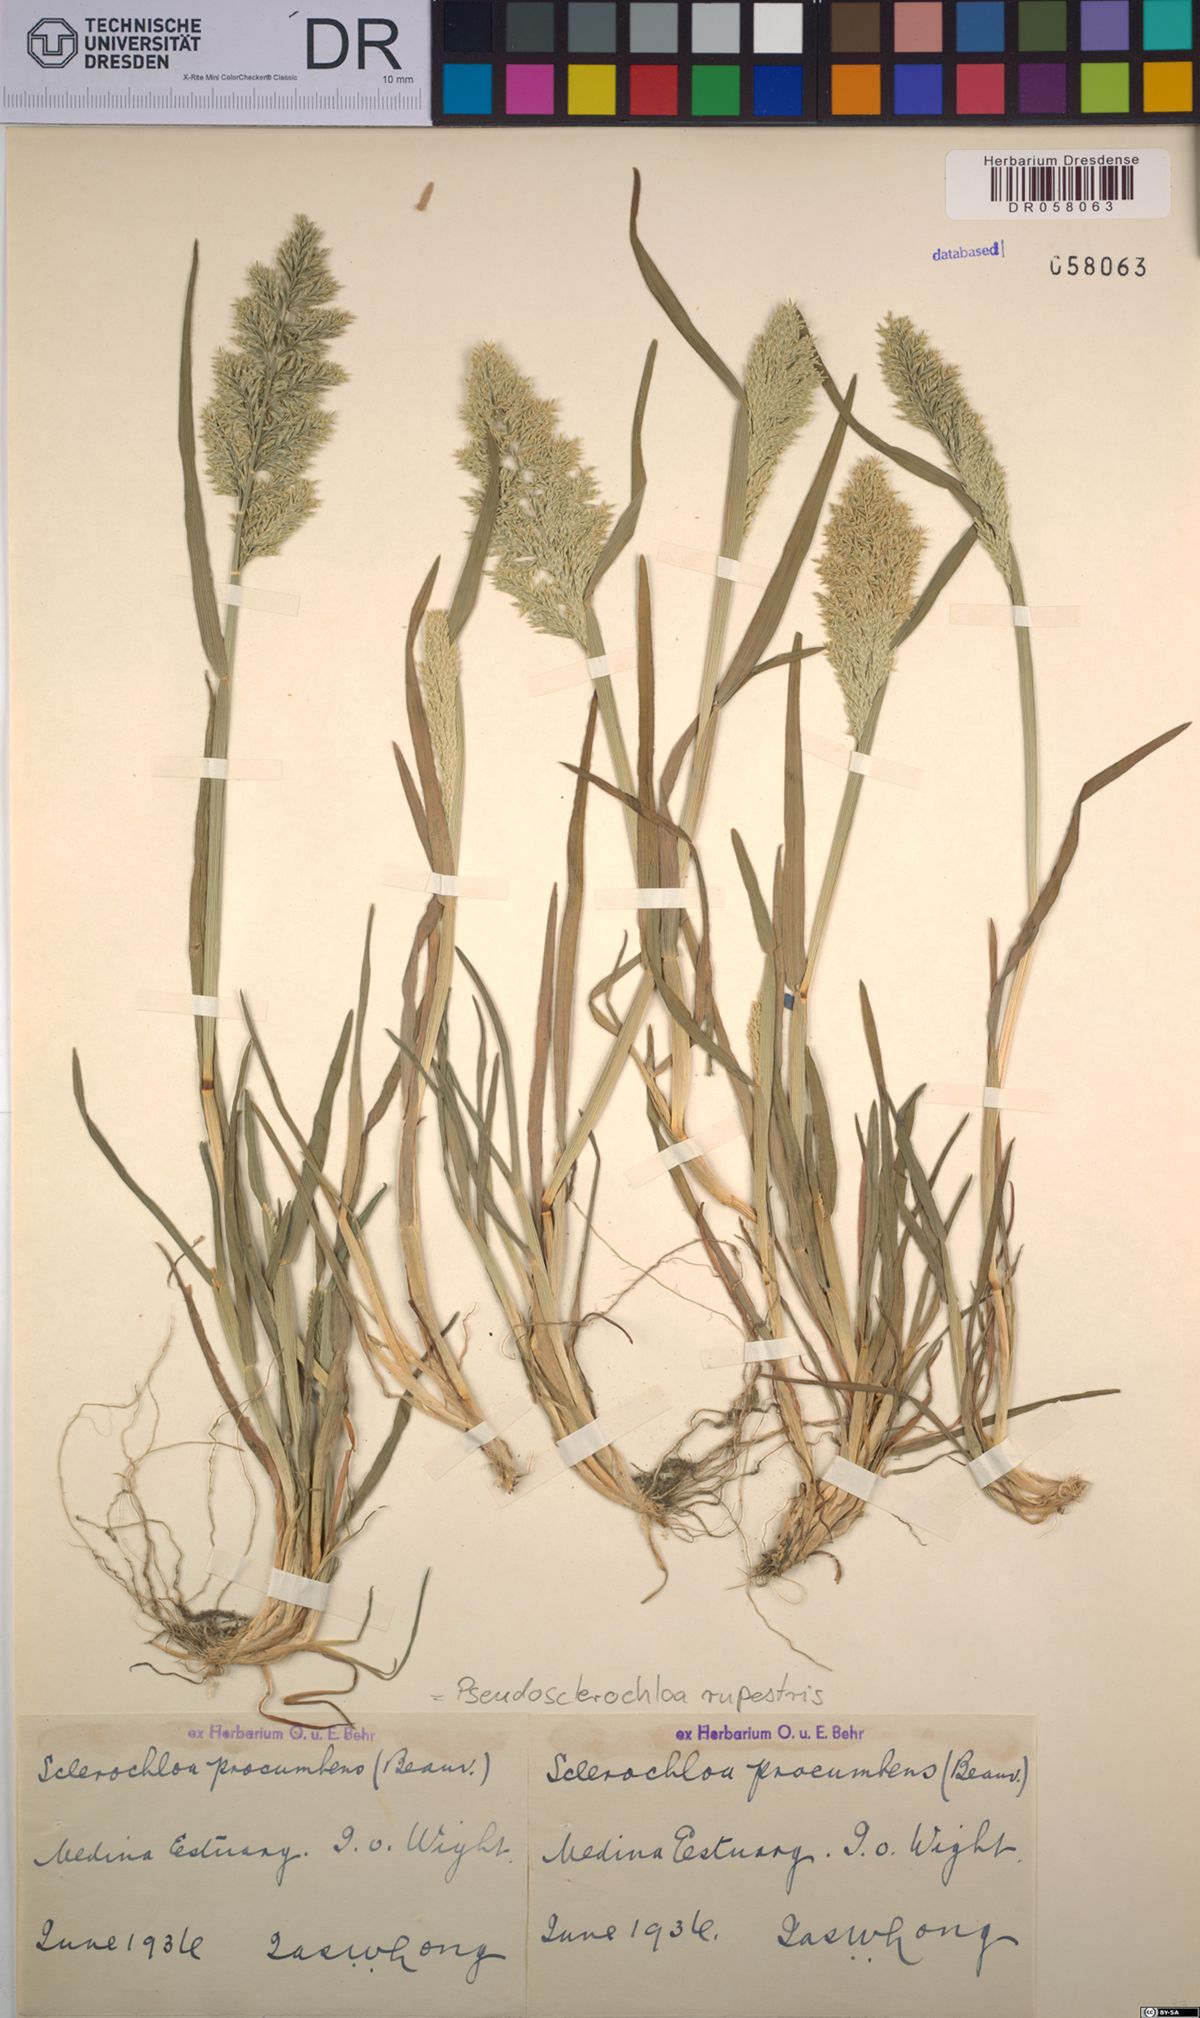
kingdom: Plantae
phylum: Tracheophyta
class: Liliopsida
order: Poales
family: Poaceae
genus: Puccinellia
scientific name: Puccinellia rupestris
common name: Stiff saltmarsh-grass
